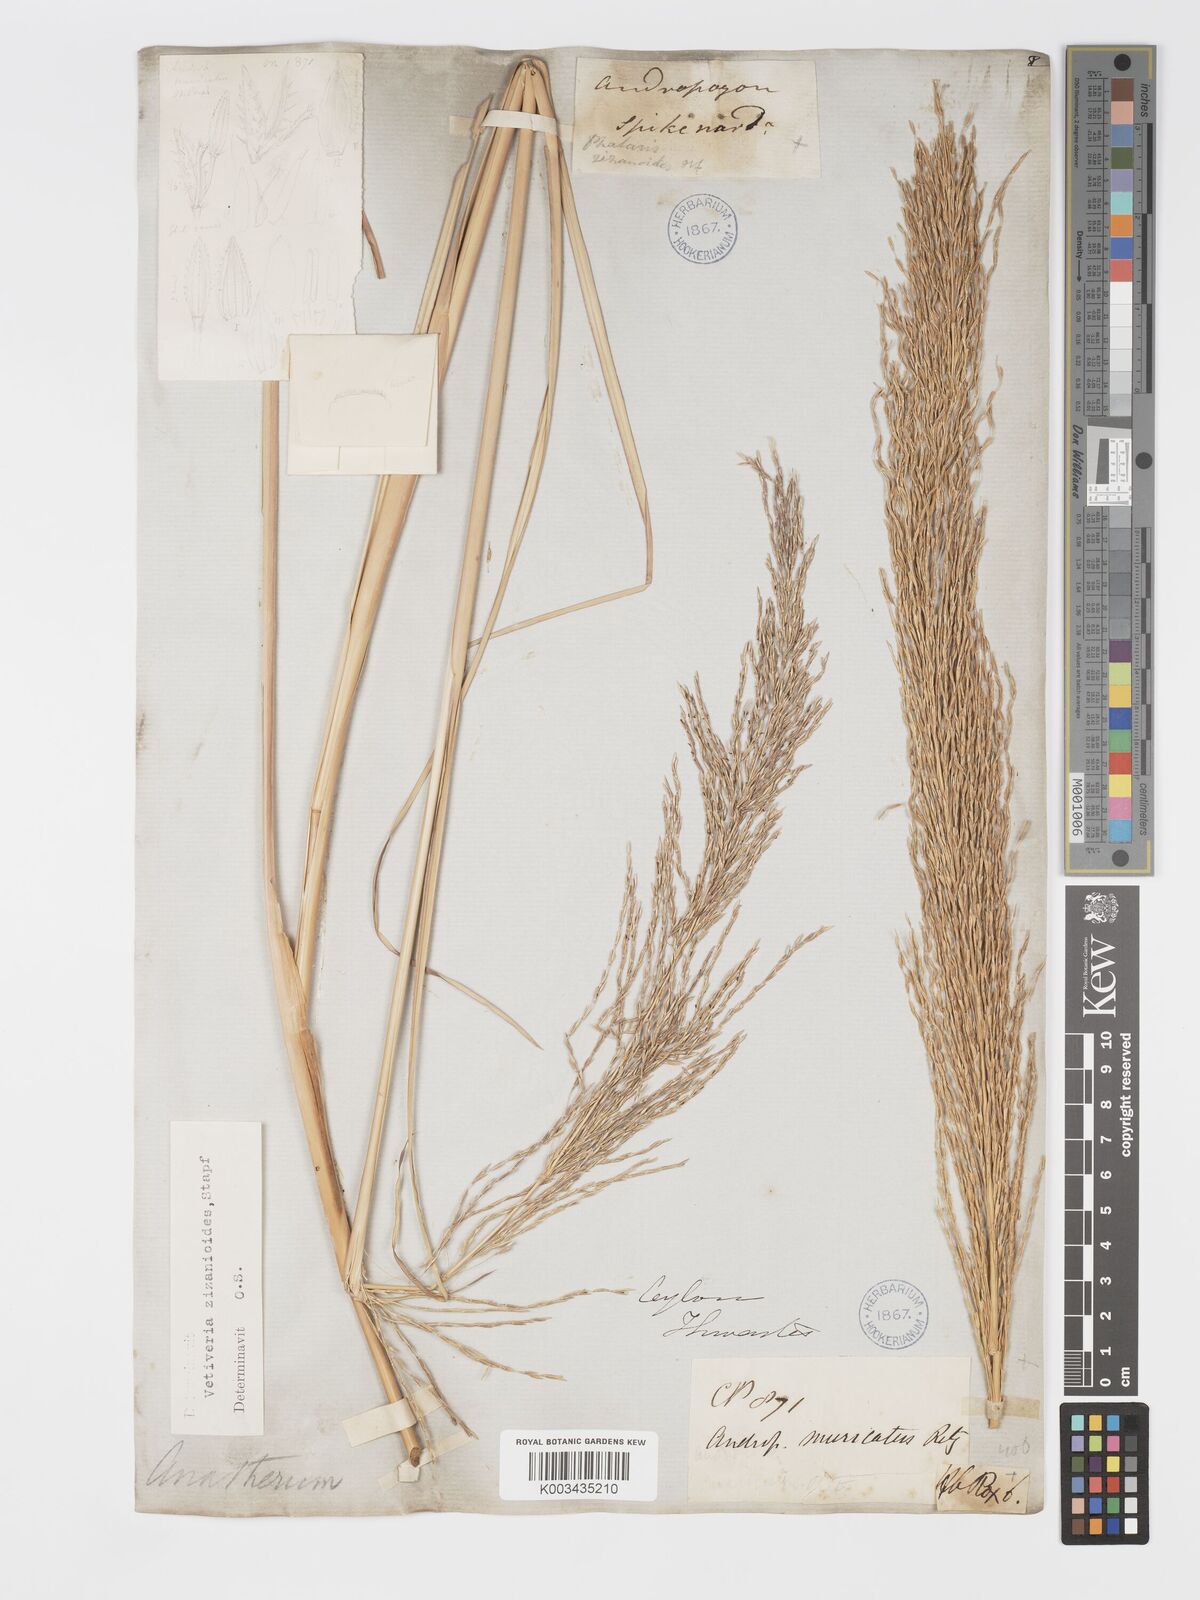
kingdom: Plantae
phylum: Tracheophyta
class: Liliopsida
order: Poales
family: Poaceae
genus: Chrysopogon
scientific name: Chrysopogon zizanioides
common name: False beardgrass
